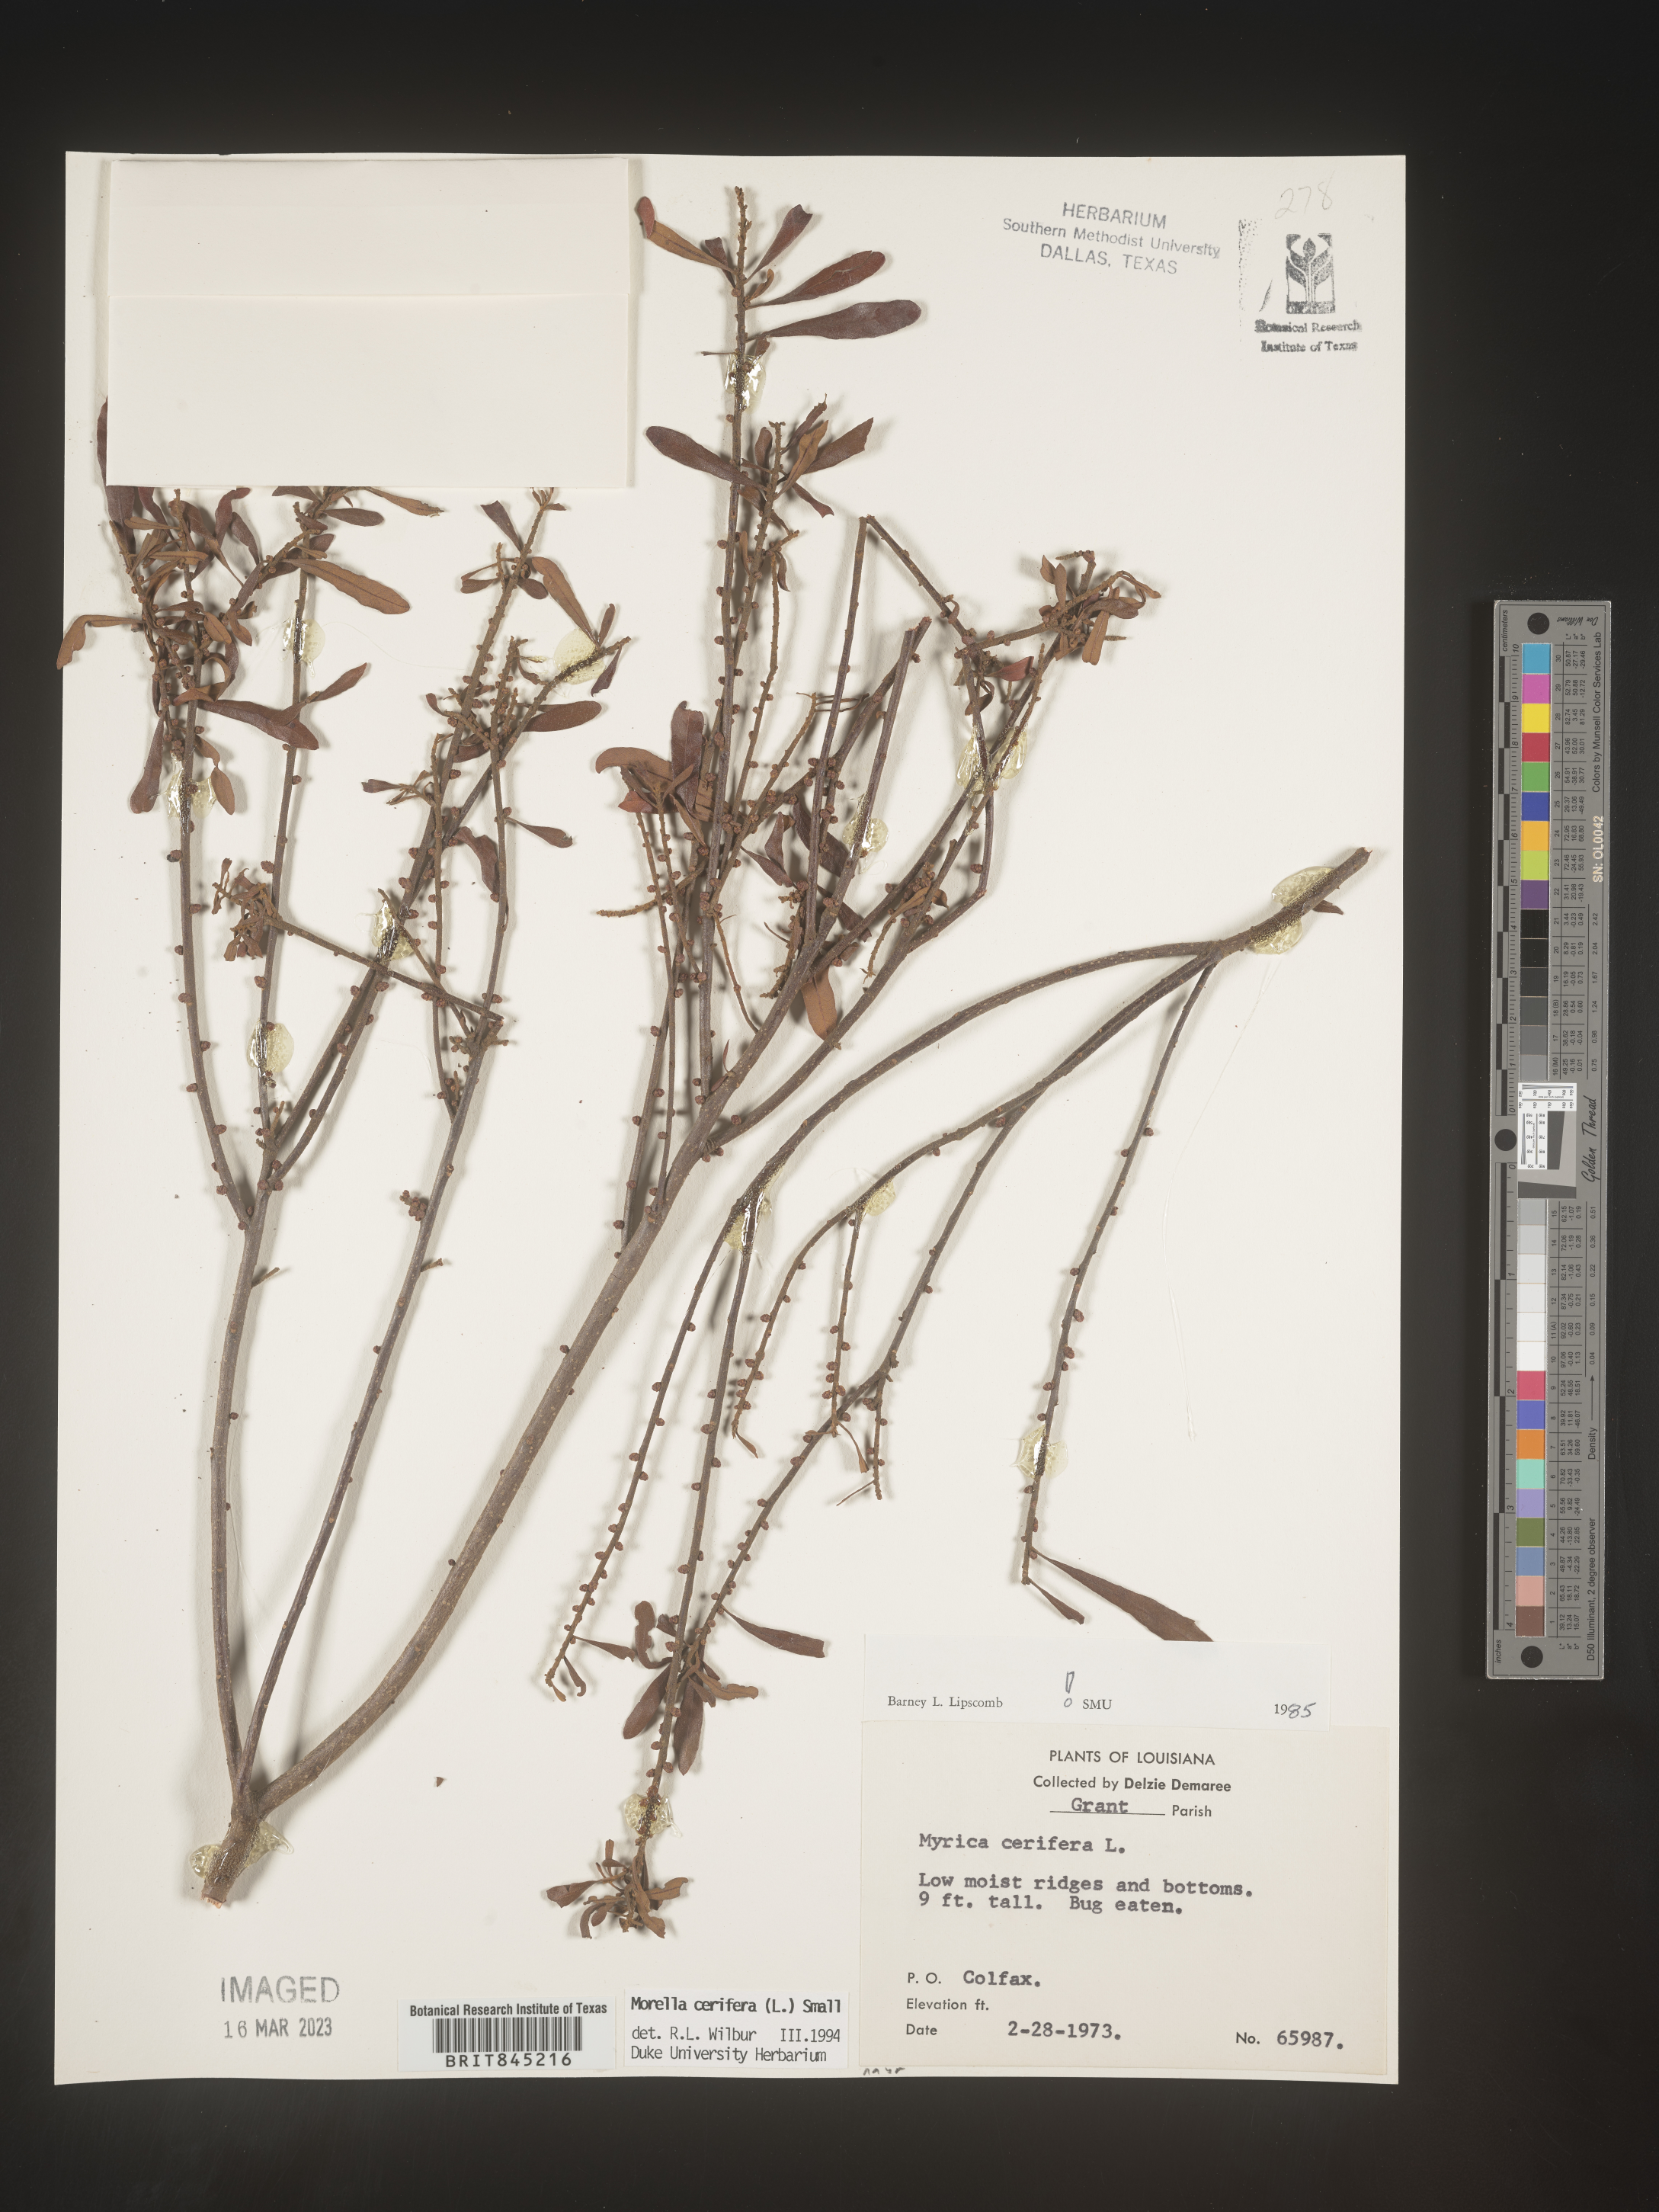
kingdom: Plantae
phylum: Tracheophyta
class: Magnoliopsida
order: Fagales
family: Myricaceae
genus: Morella
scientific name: Morella cerifera
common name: Wax myrtle
